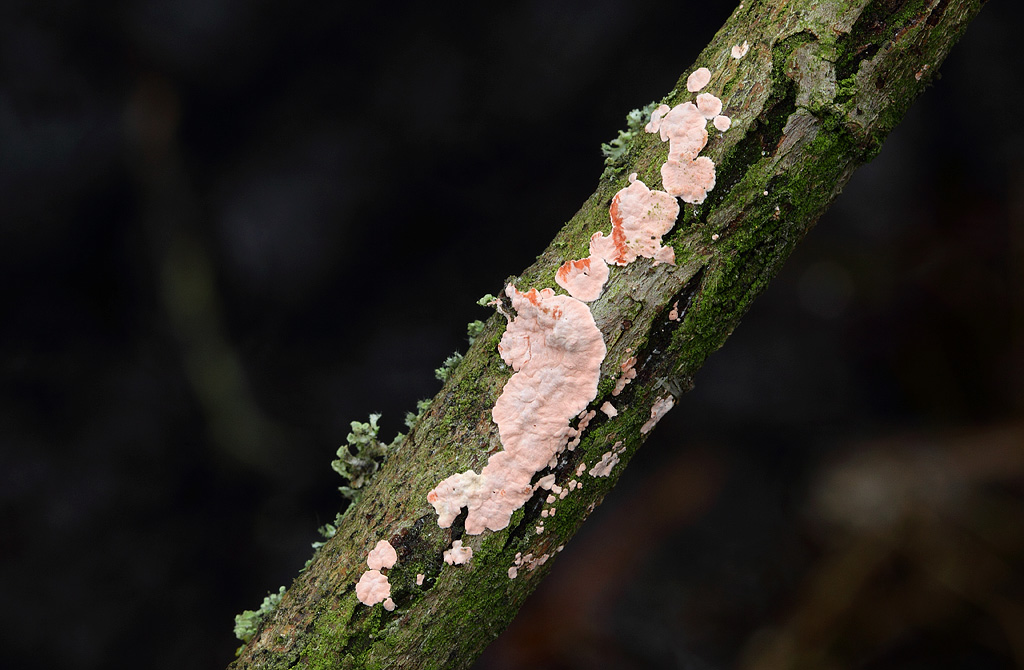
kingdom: Fungi
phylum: Basidiomycota
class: Agaricomycetes
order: Corticiales
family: Corticiaceae
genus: Corticium
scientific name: Corticium roseum
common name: rosa barkskind
